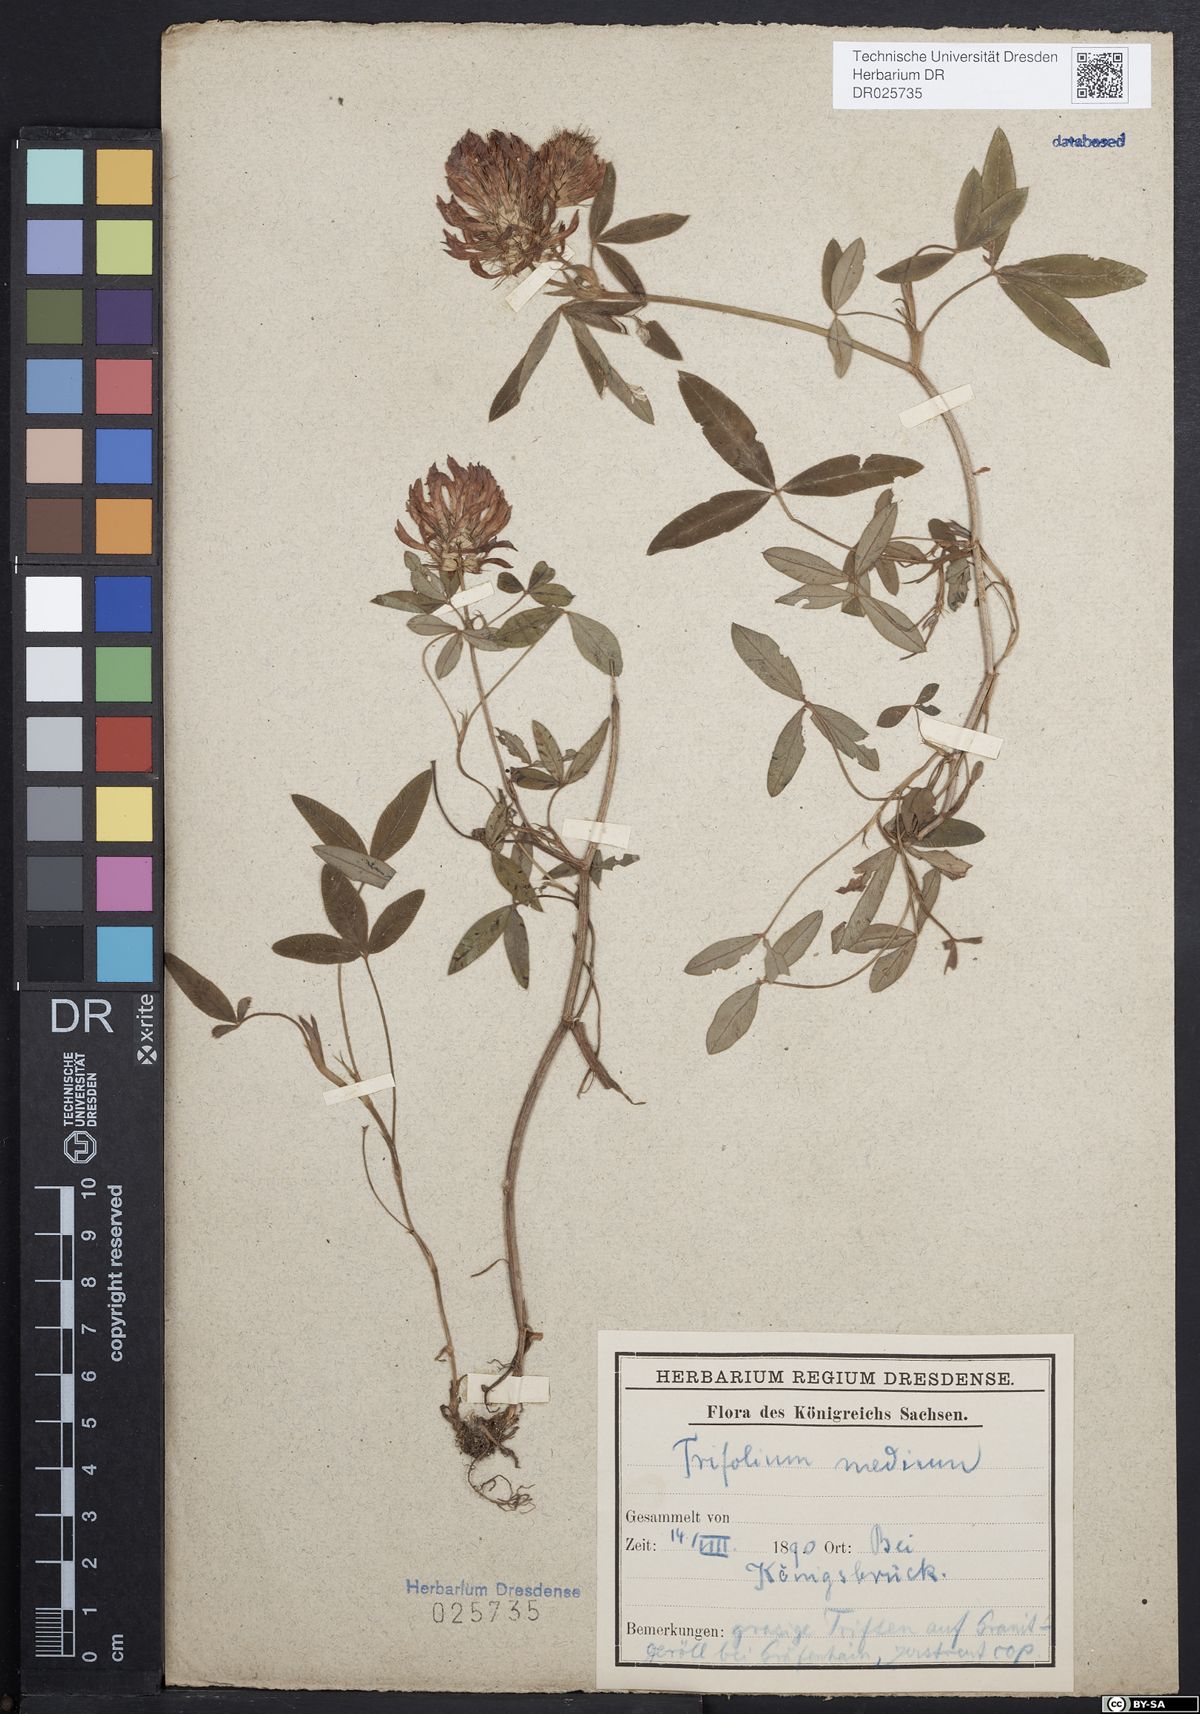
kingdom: Plantae
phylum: Tracheophyta
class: Magnoliopsida
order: Fabales
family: Fabaceae
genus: Trifolium
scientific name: Trifolium medium
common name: Zigzag clover
